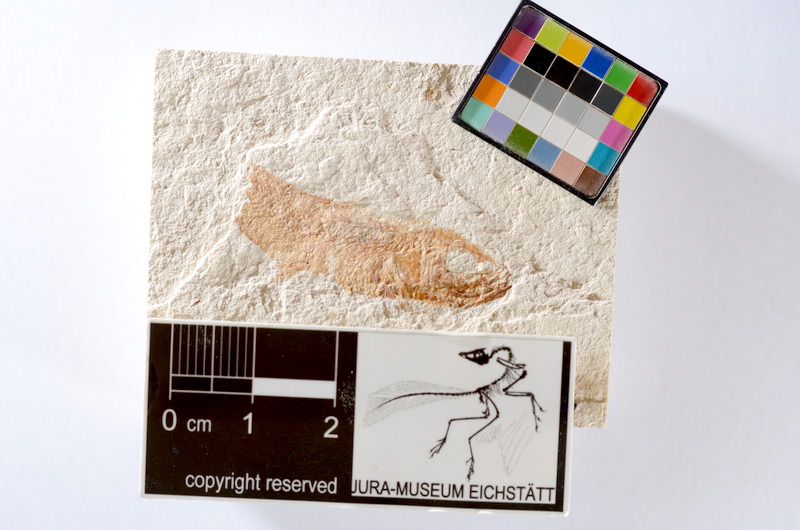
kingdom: Animalia
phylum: Chordata
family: Ascalaboidae
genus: Tharsis
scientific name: Tharsis dubius
